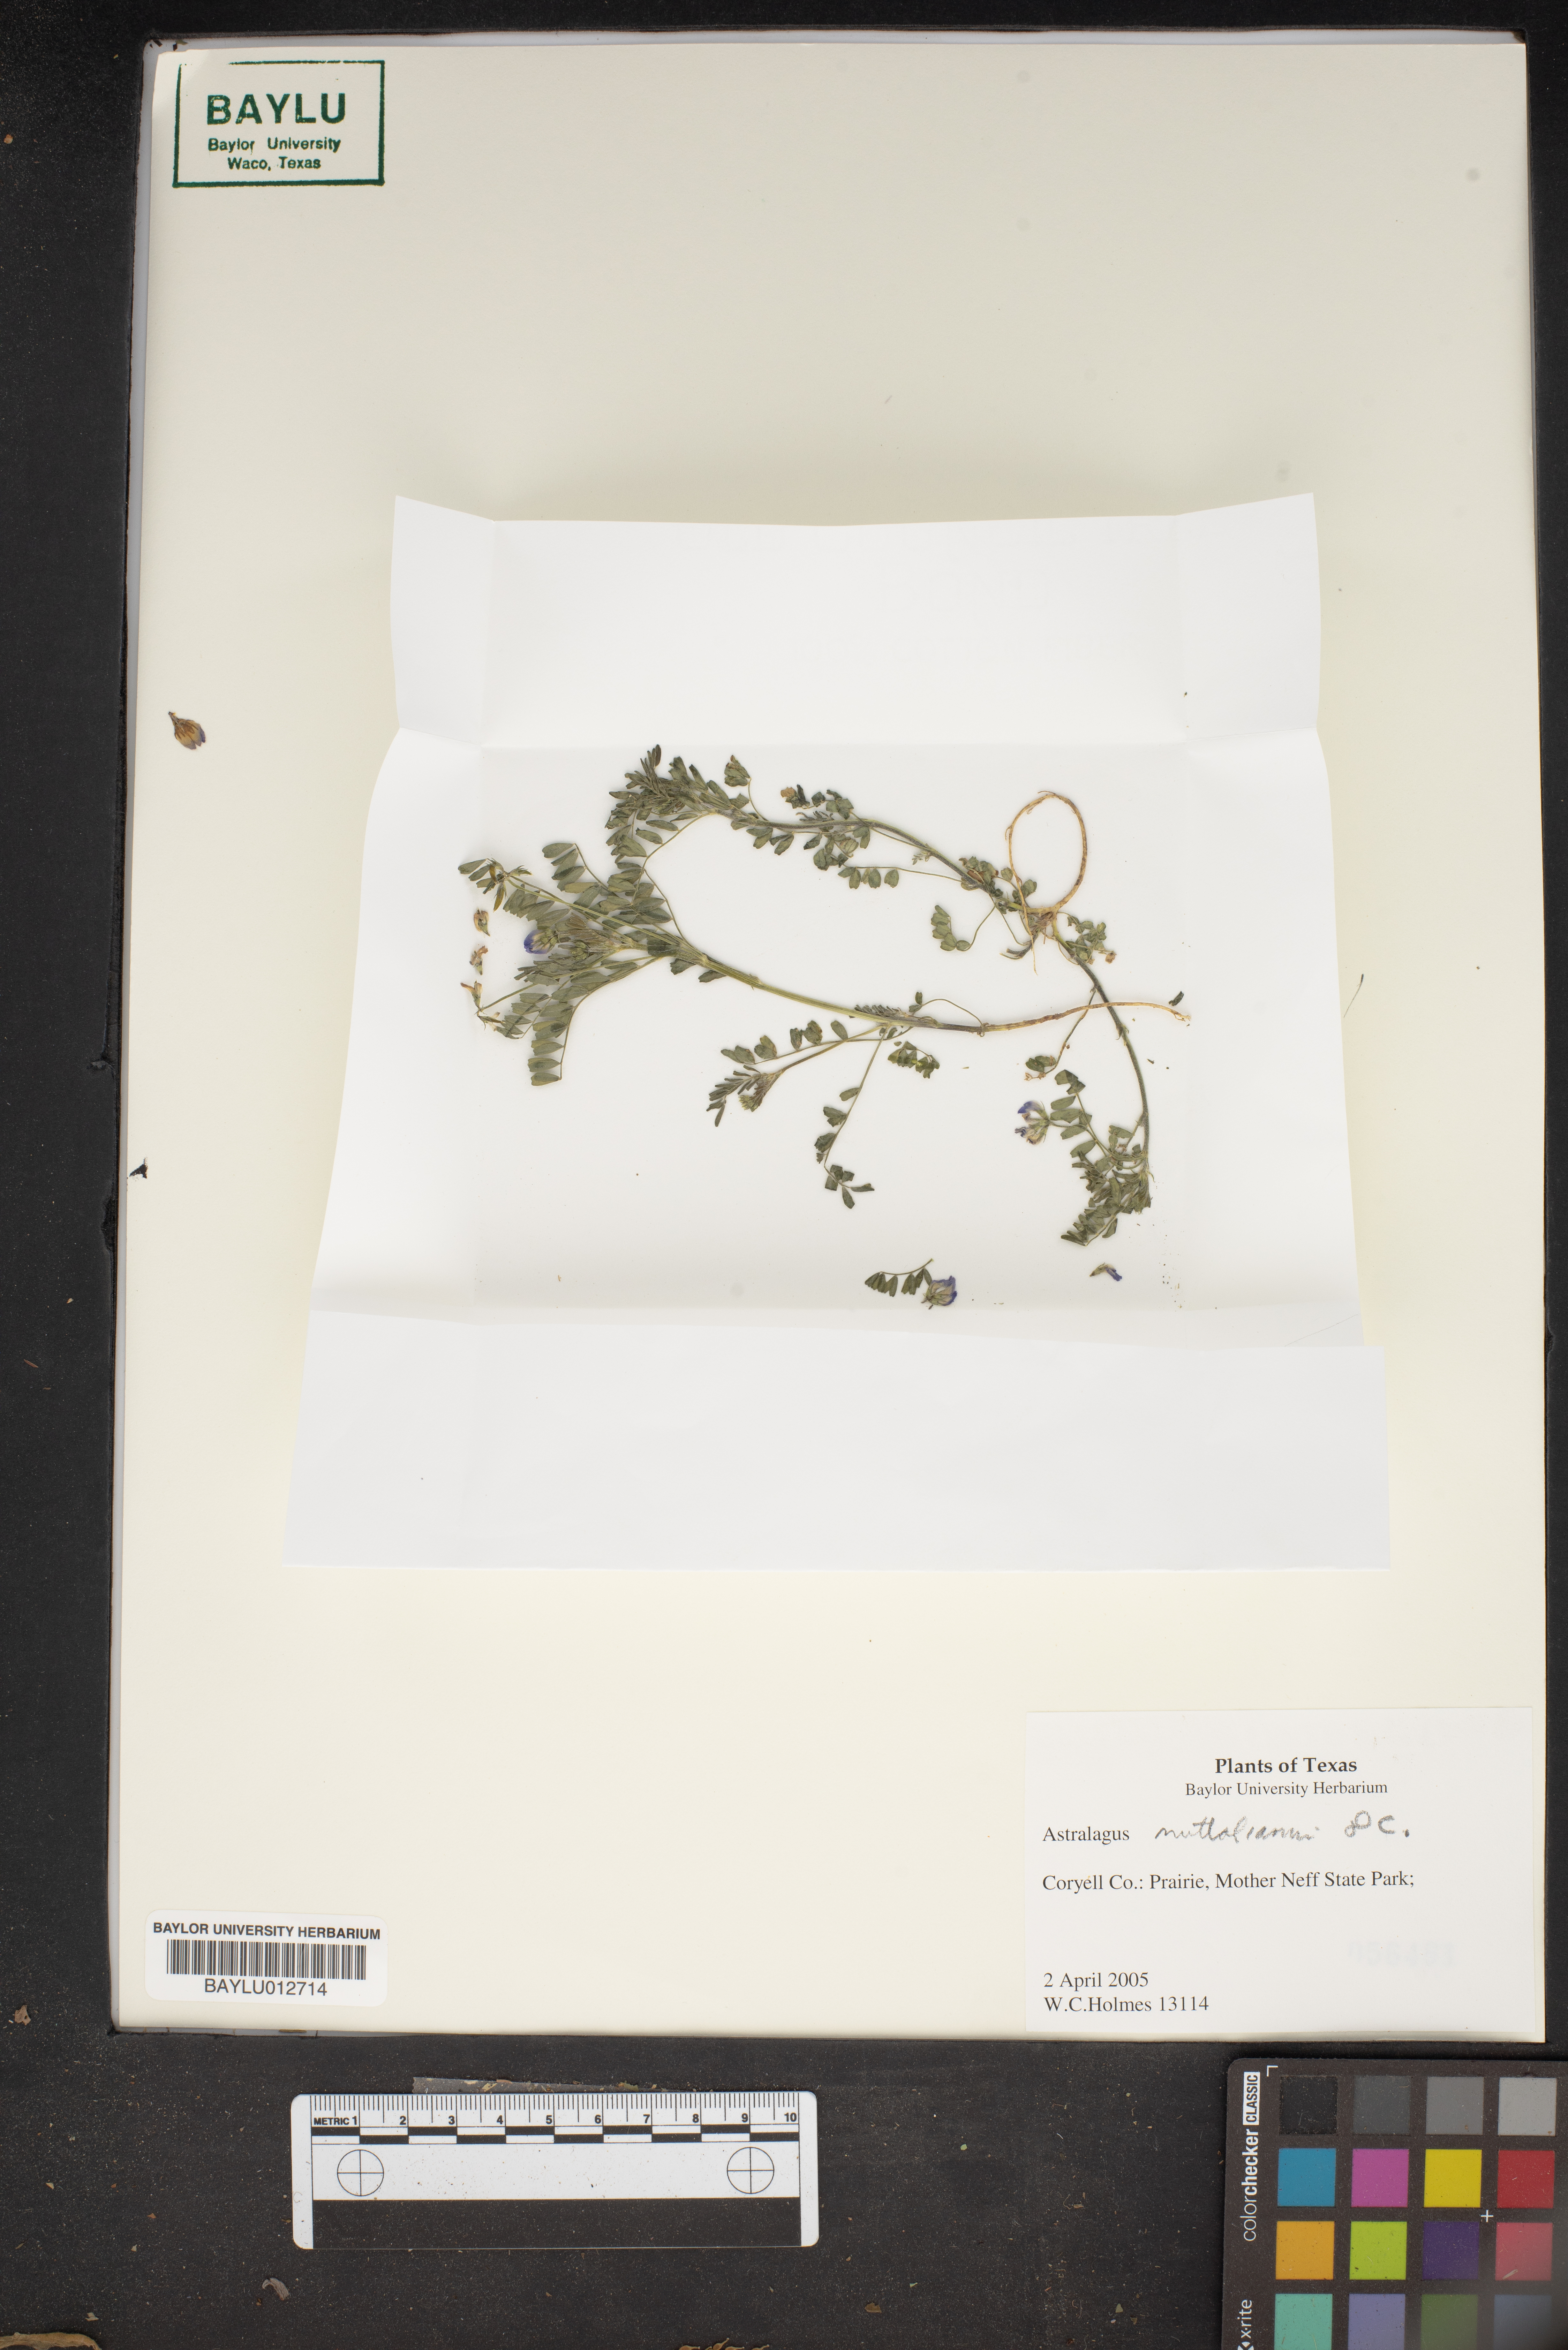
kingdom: Plantae
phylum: Tracheophyta
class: Magnoliopsida
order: Fabales
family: Fabaceae
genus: Astragalus
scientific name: Astragalus nuttallianus
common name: Smallflowered milkvetch
